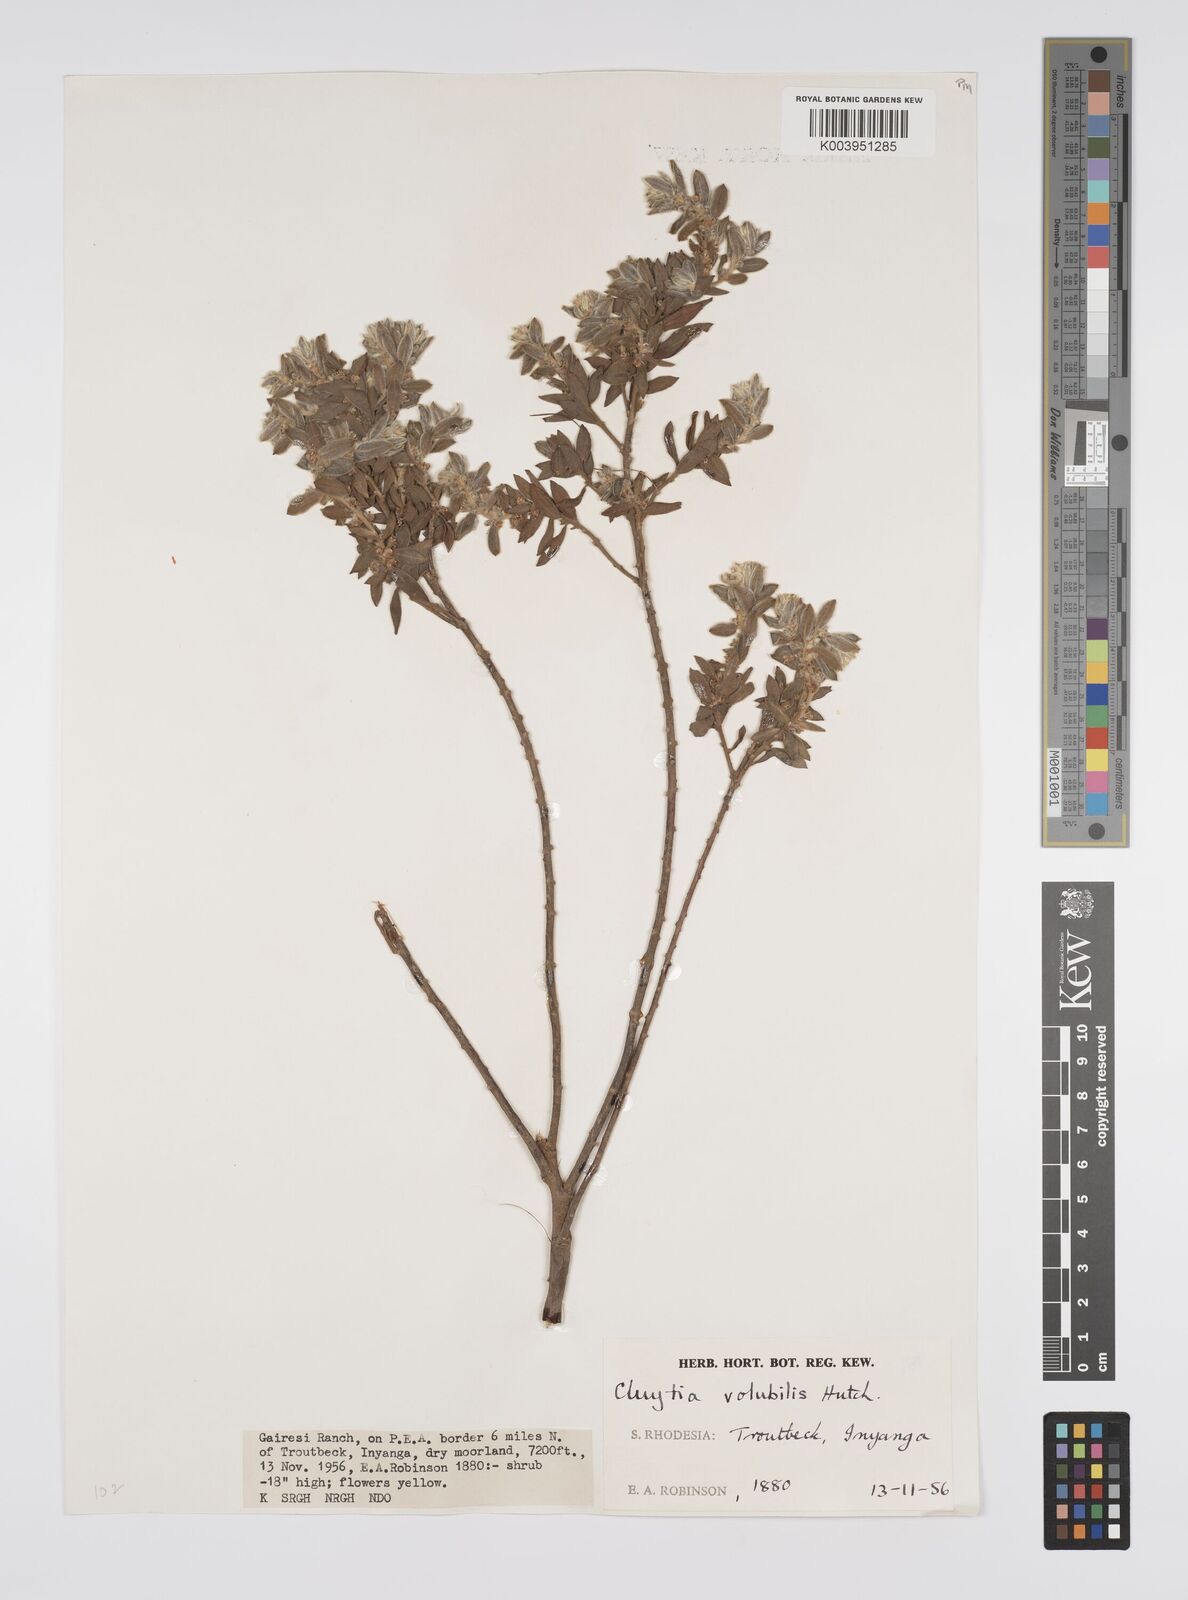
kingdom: Plantae
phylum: Tracheophyta
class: Magnoliopsida
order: Malpighiales
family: Peraceae
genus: Clutia
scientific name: Clutia
